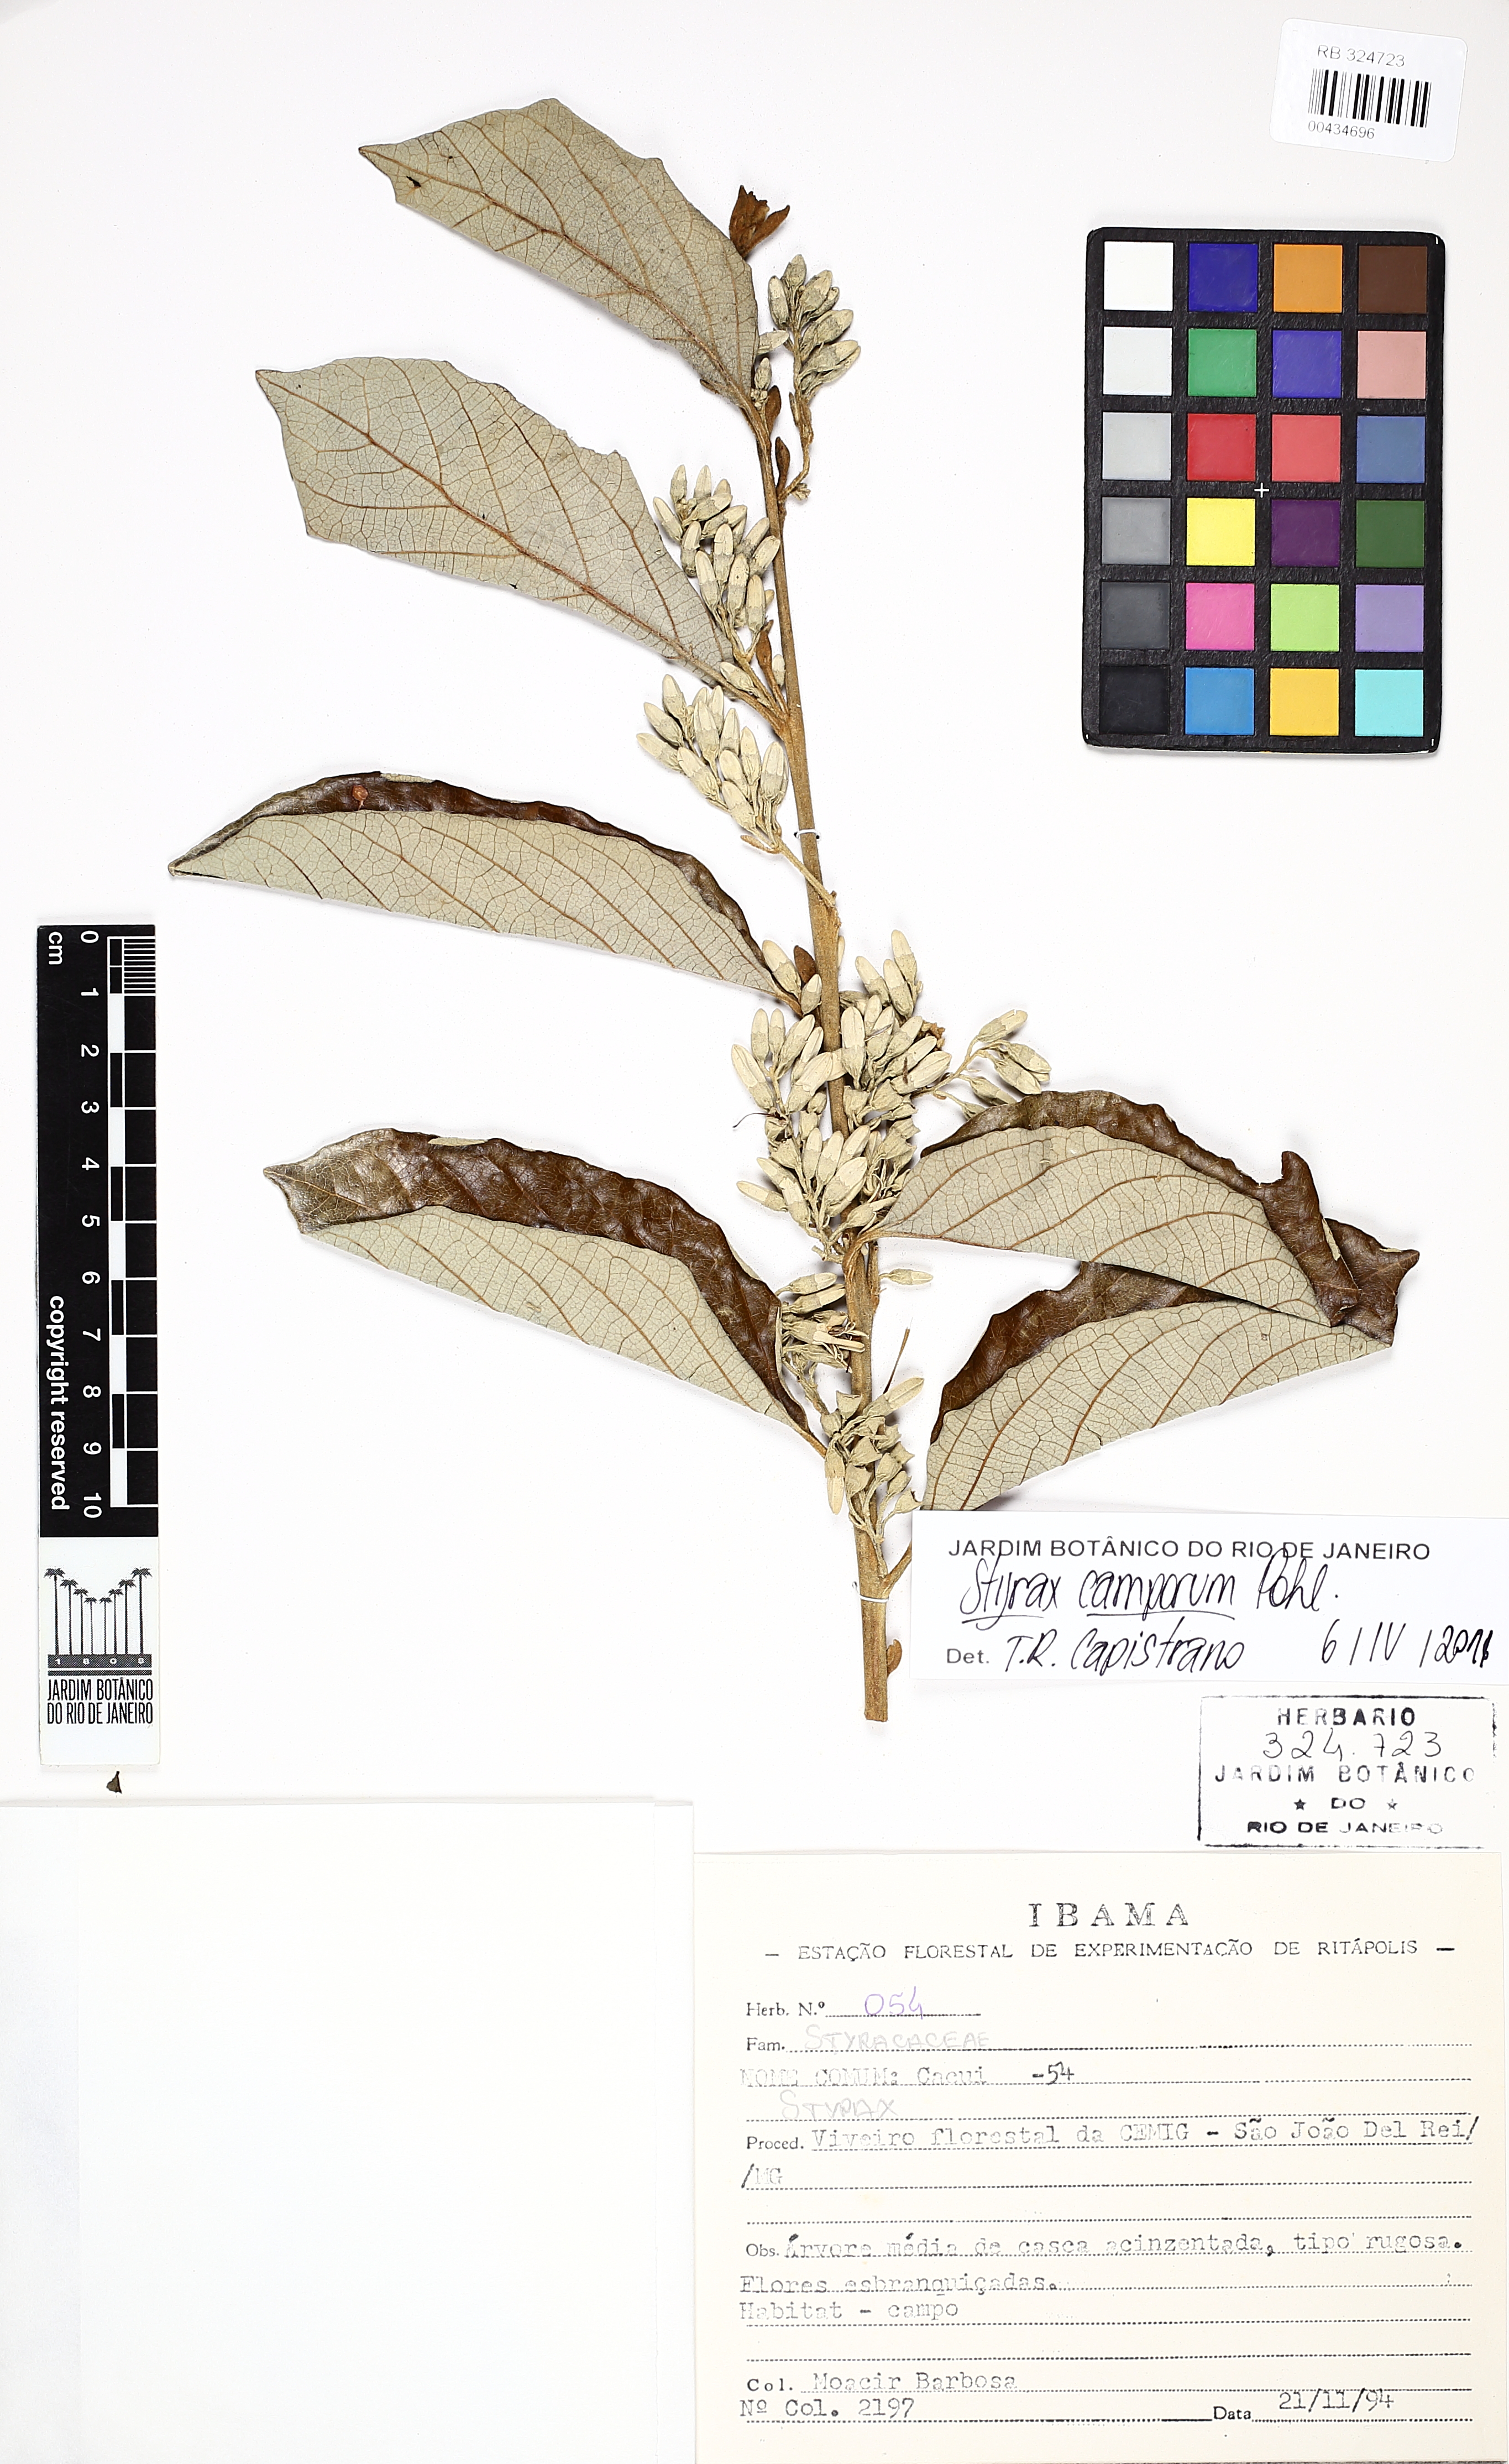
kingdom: Plantae
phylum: Tracheophyta
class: Magnoliopsida
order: Ericales
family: Styracaceae
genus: Styrax
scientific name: Styrax camporum
